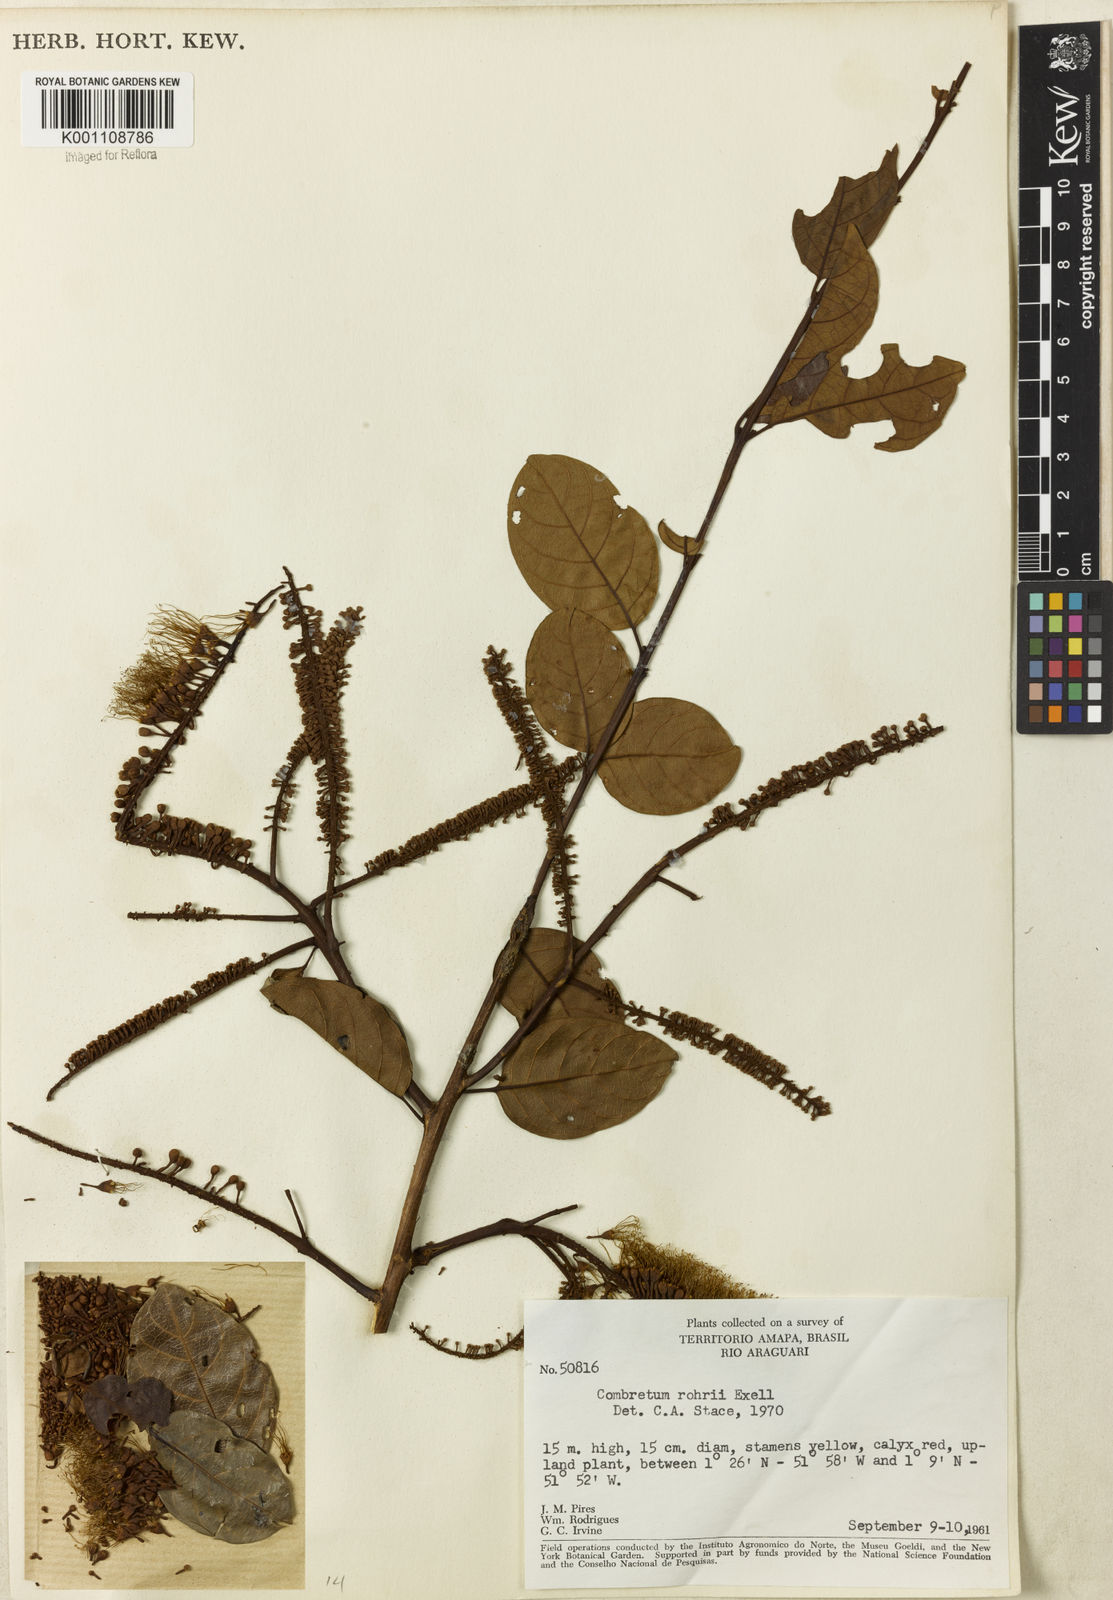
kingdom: Plantae
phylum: Tracheophyta
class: Magnoliopsida
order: Myrtales
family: Combretaceae
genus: Combretum
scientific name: Combretum rohrii
